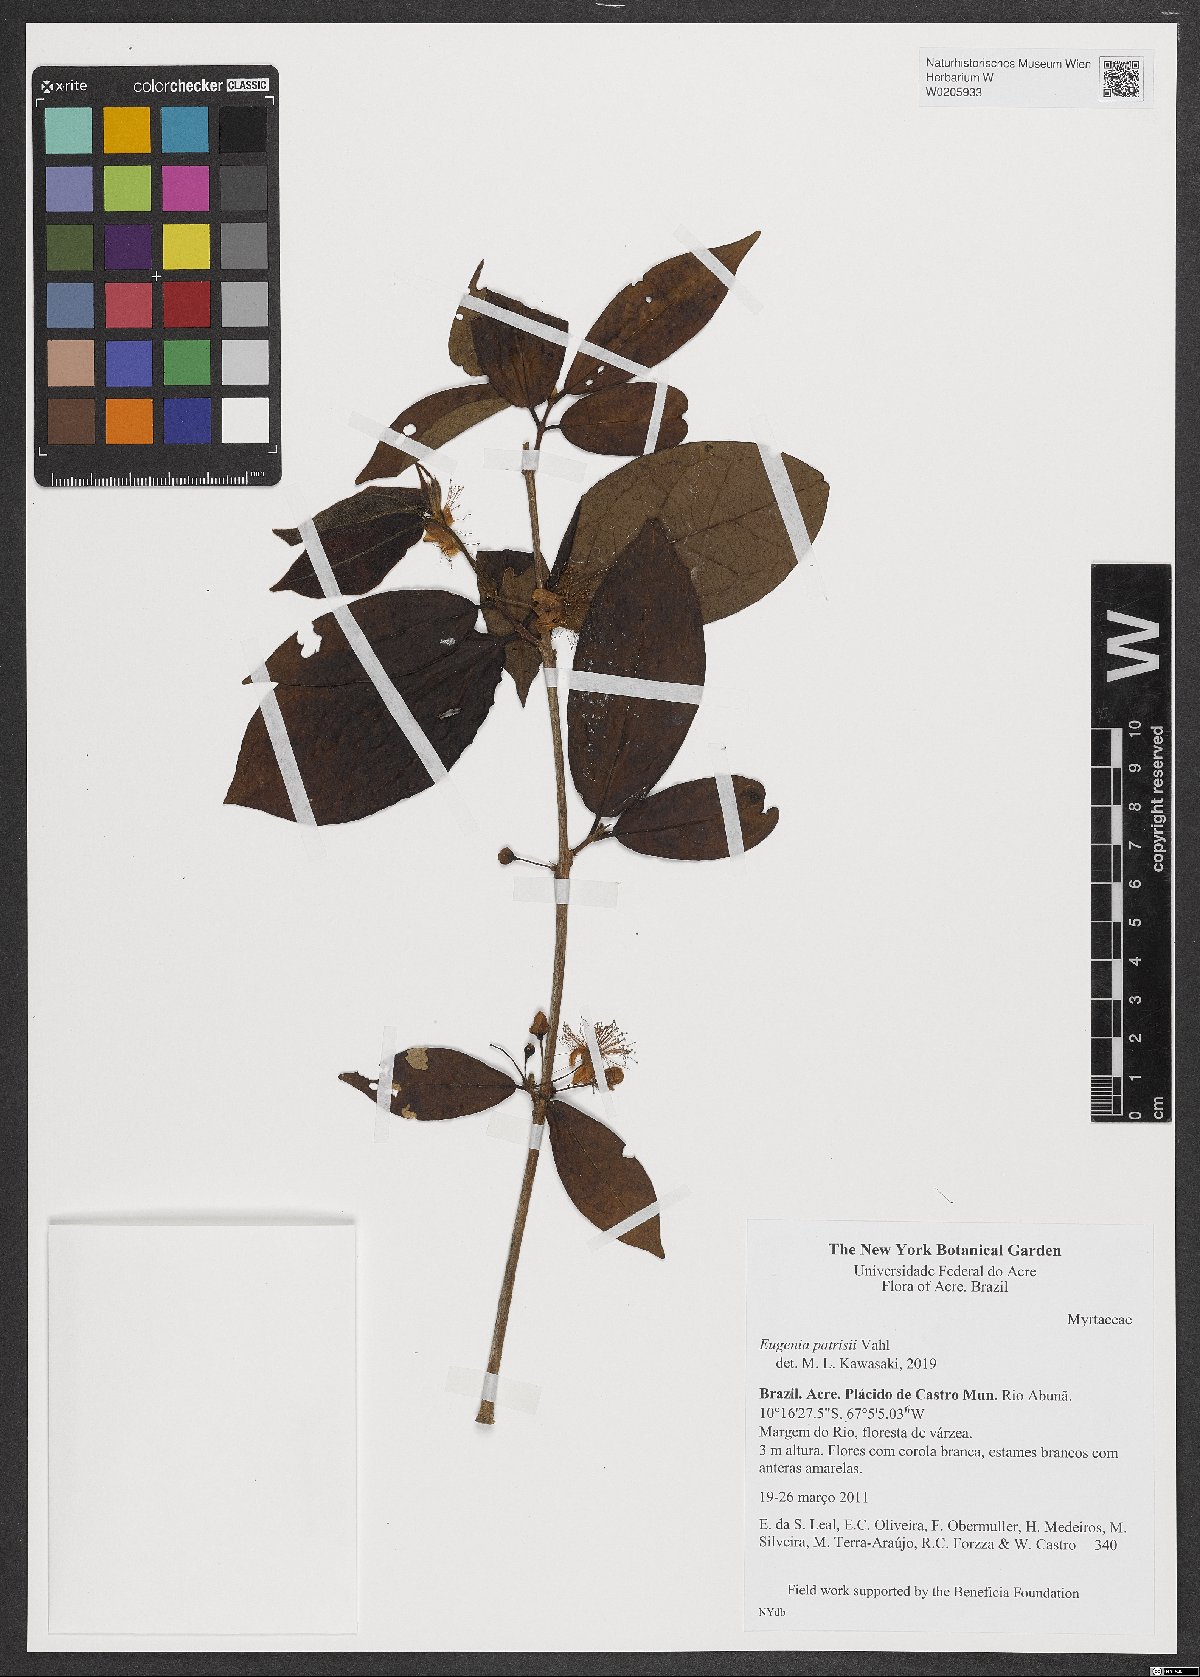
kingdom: Plantae
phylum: Tracheophyta
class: Magnoliopsida
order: Myrtales
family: Myrtaceae
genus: Eugenia
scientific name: Eugenia patrisii
